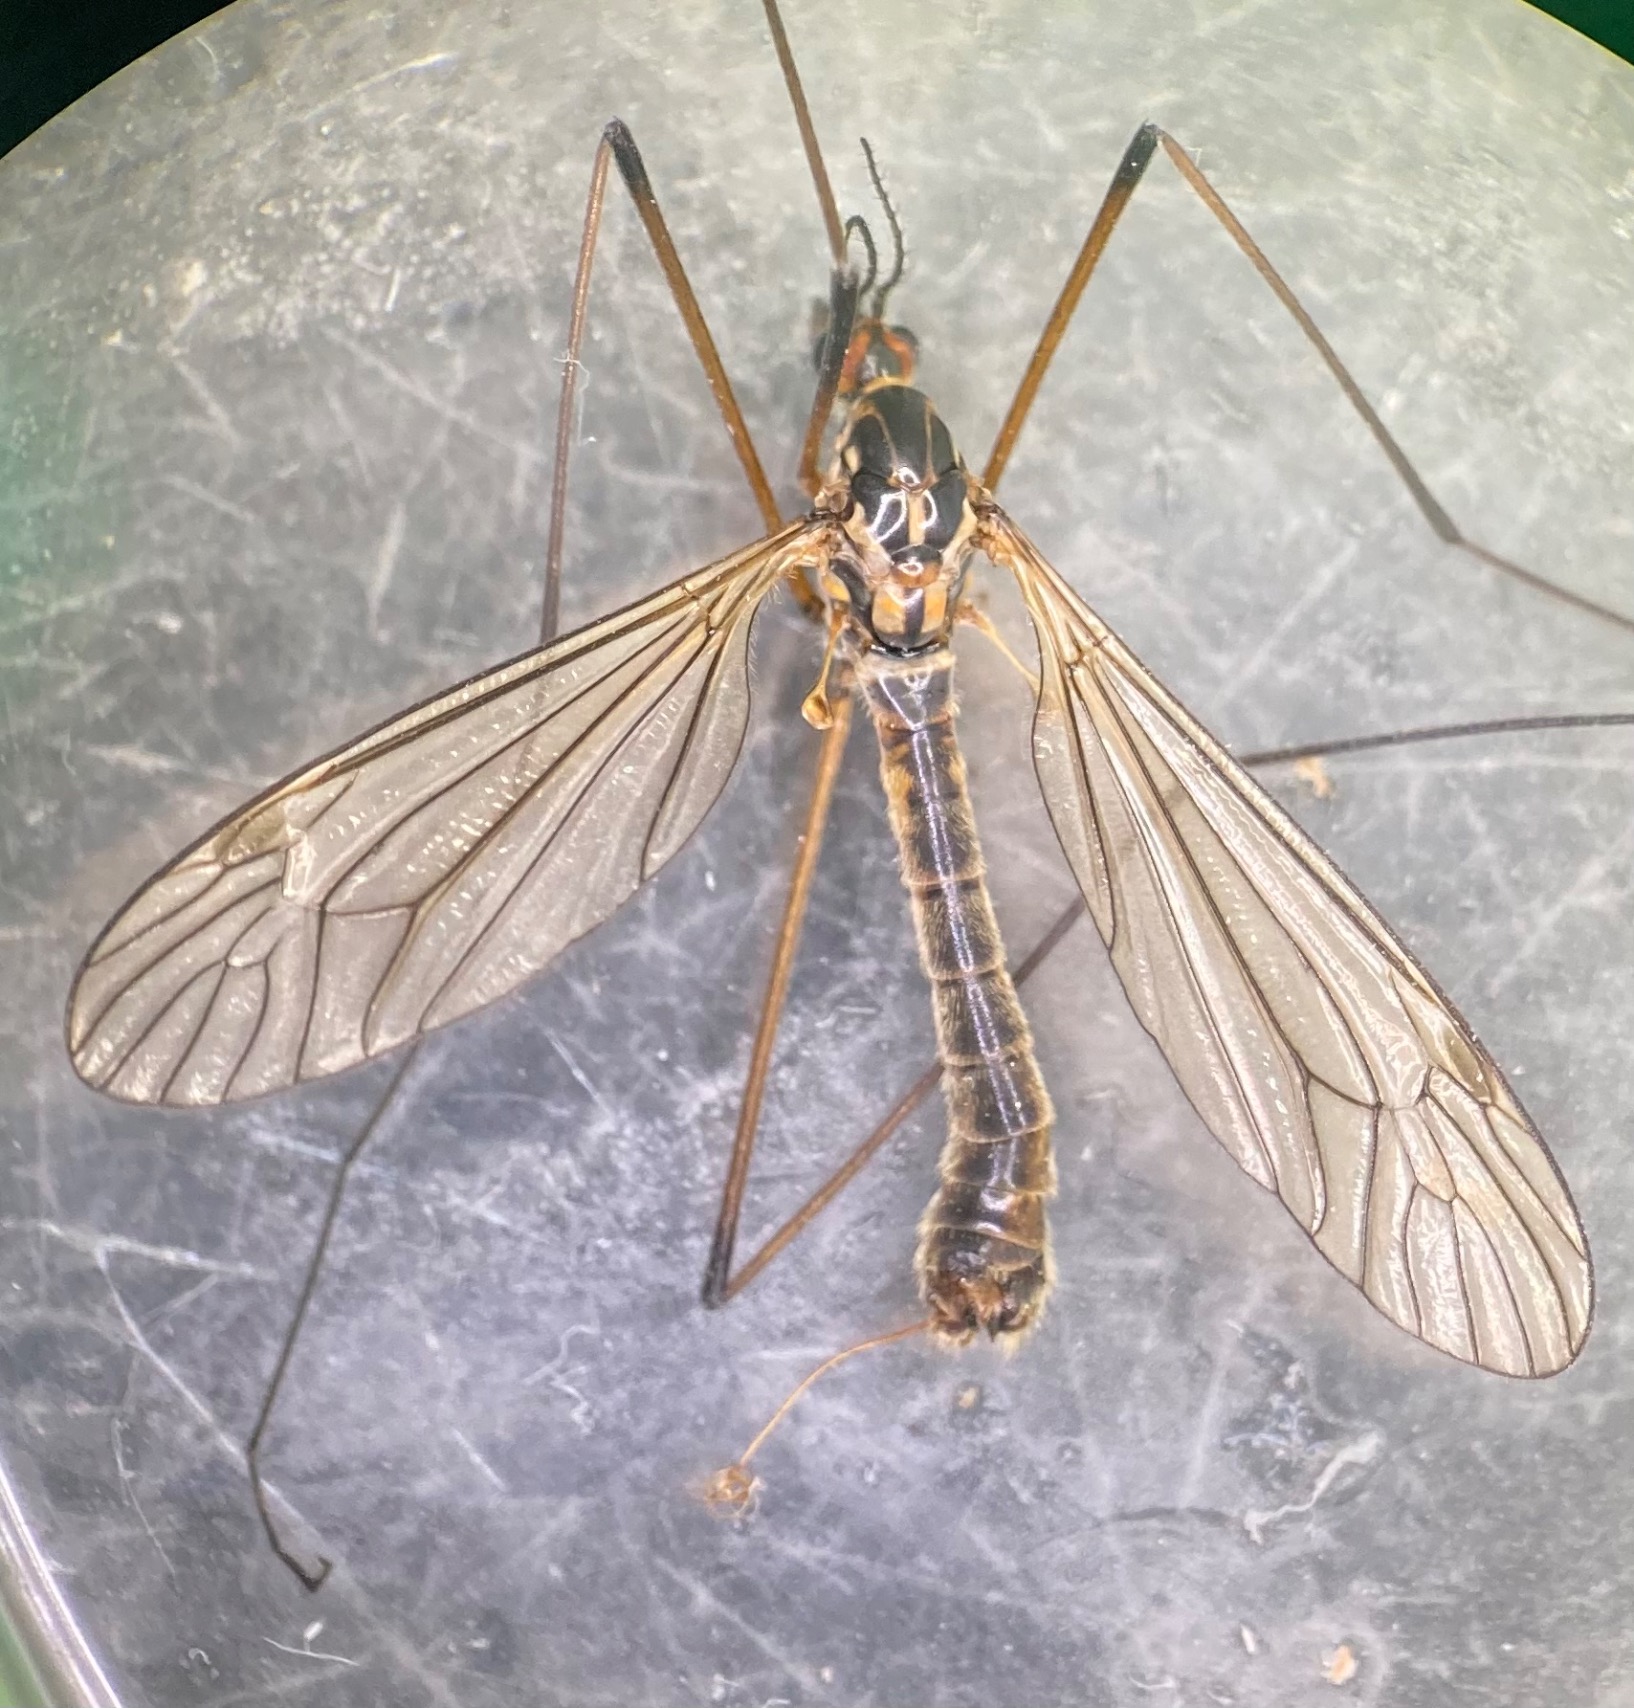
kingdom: Animalia
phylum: Arthropoda
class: Insecta
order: Diptera
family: Tipulidae
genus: Nephrotoma
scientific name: Nephrotoma appendiculata
